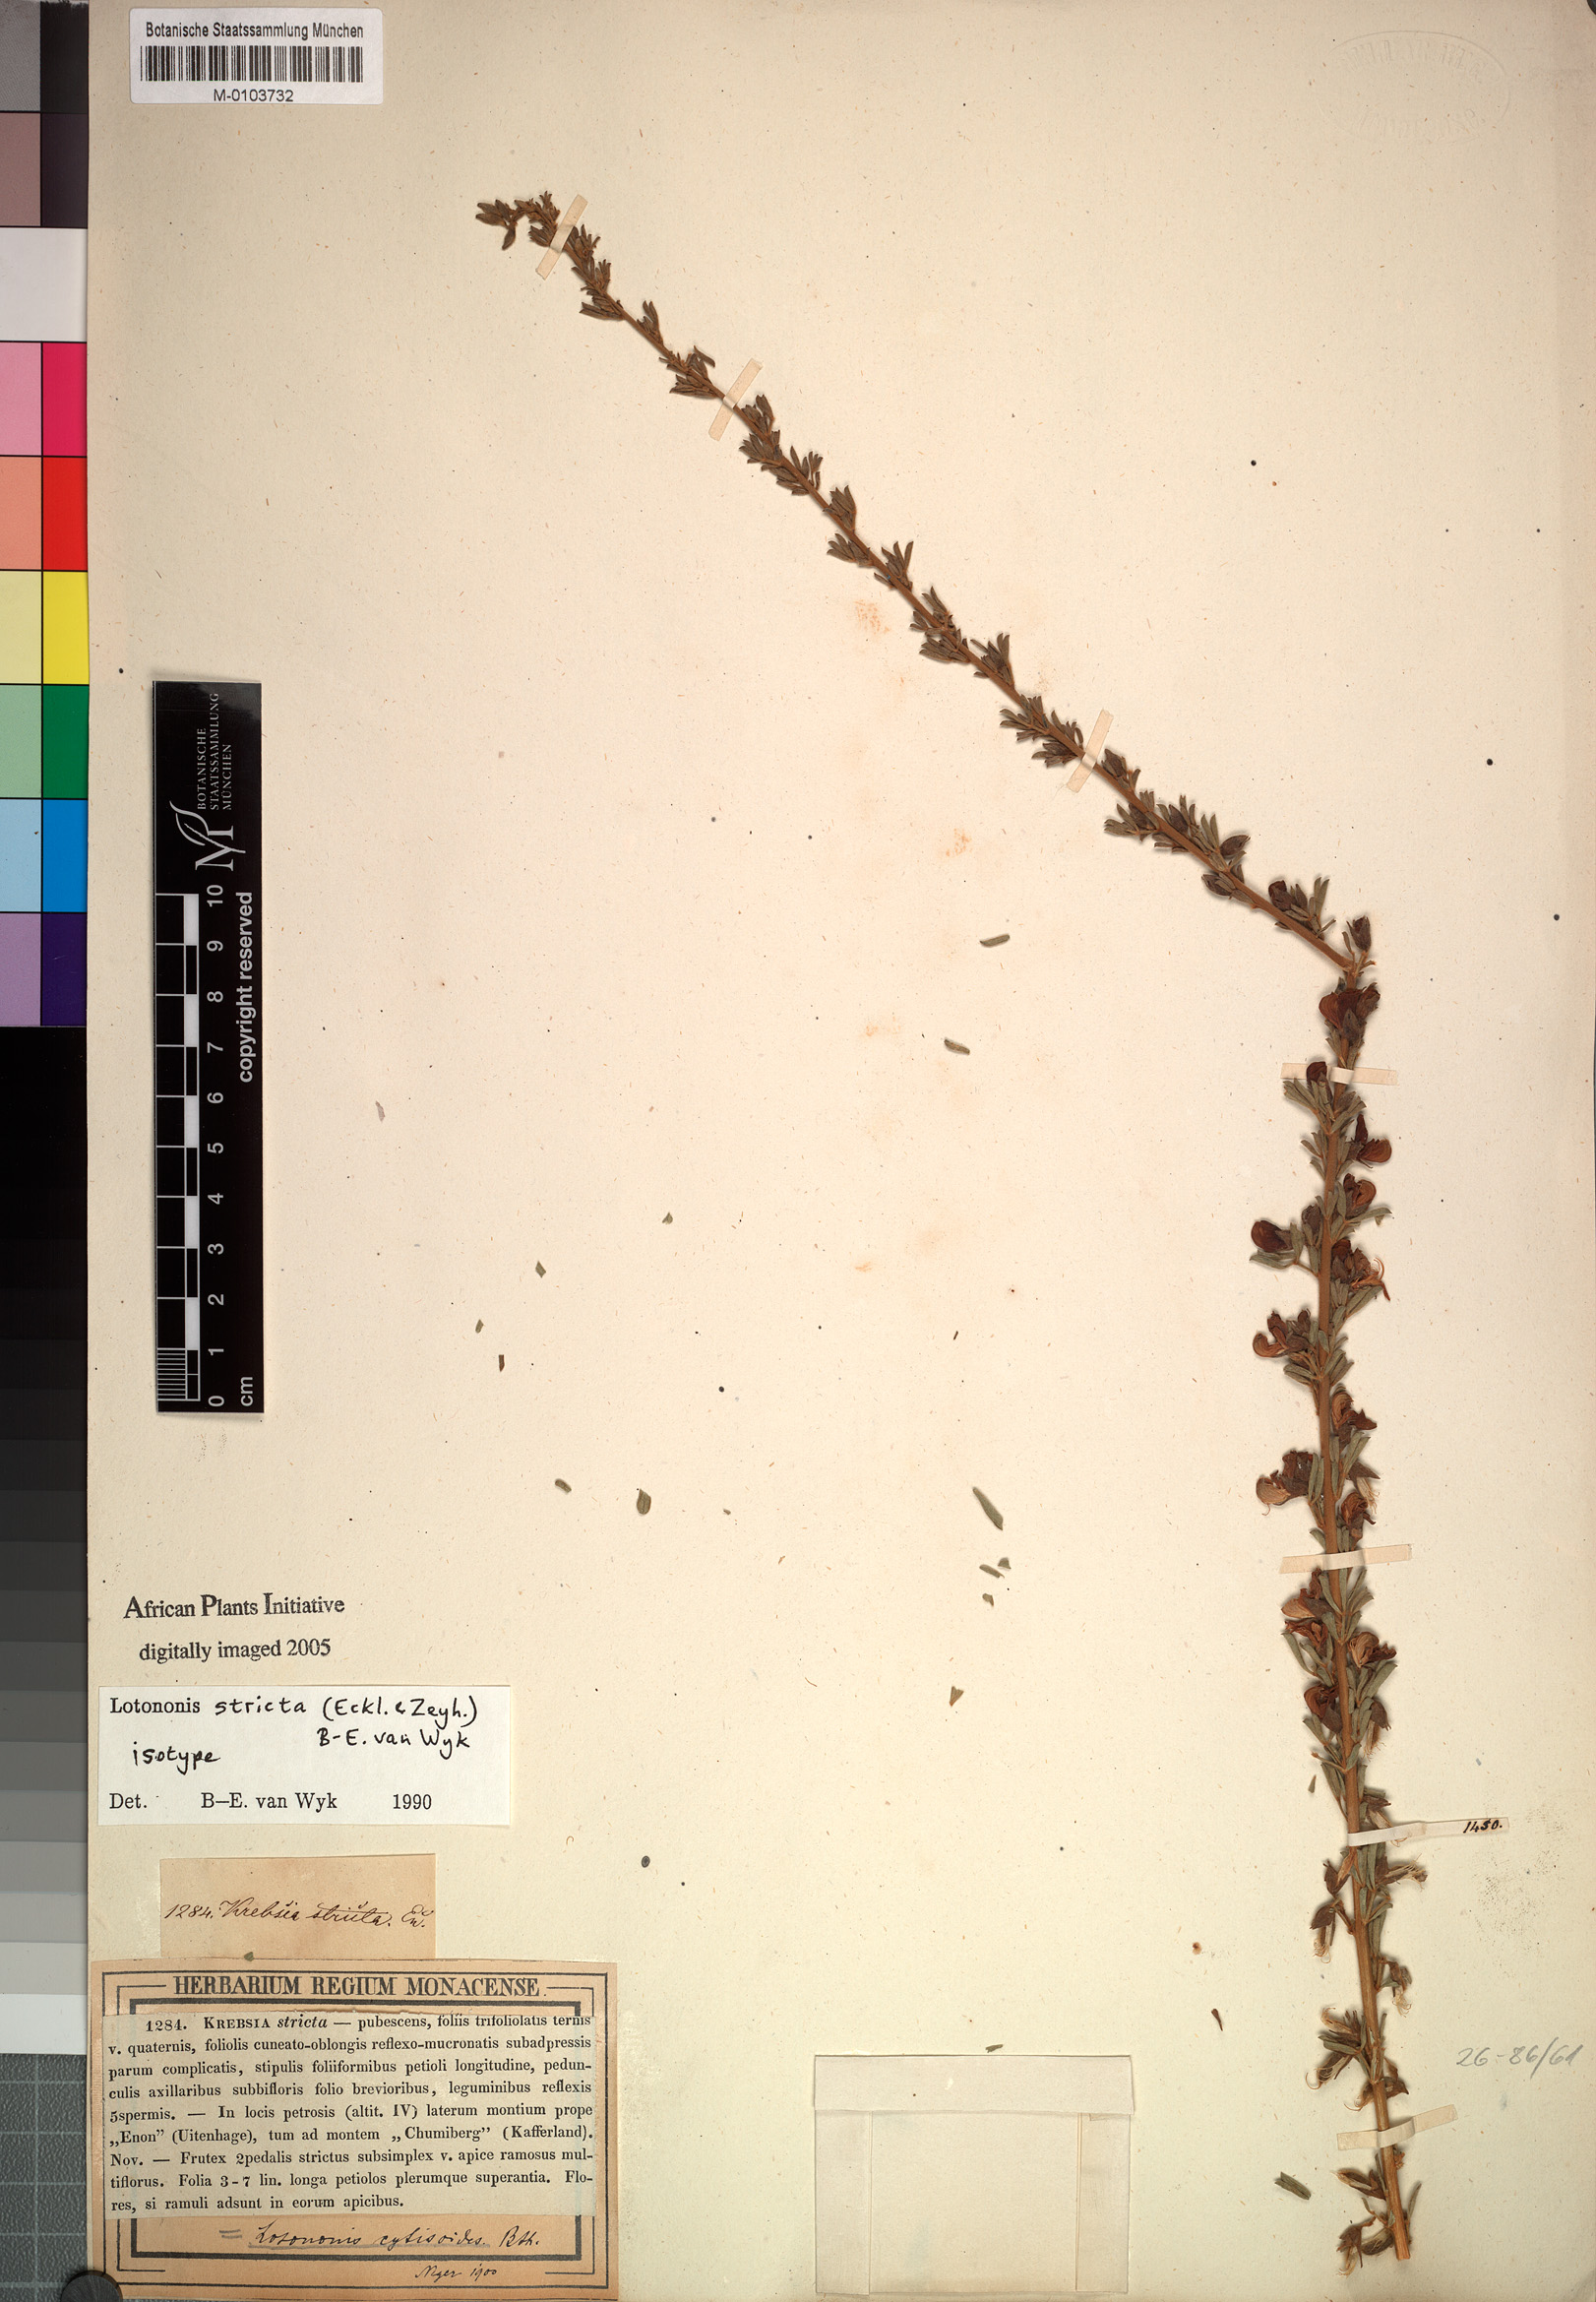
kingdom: Plantae
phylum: Tracheophyta
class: Magnoliopsida
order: Fabales
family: Fabaceae
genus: Lotononis
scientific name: Lotononis stricta
